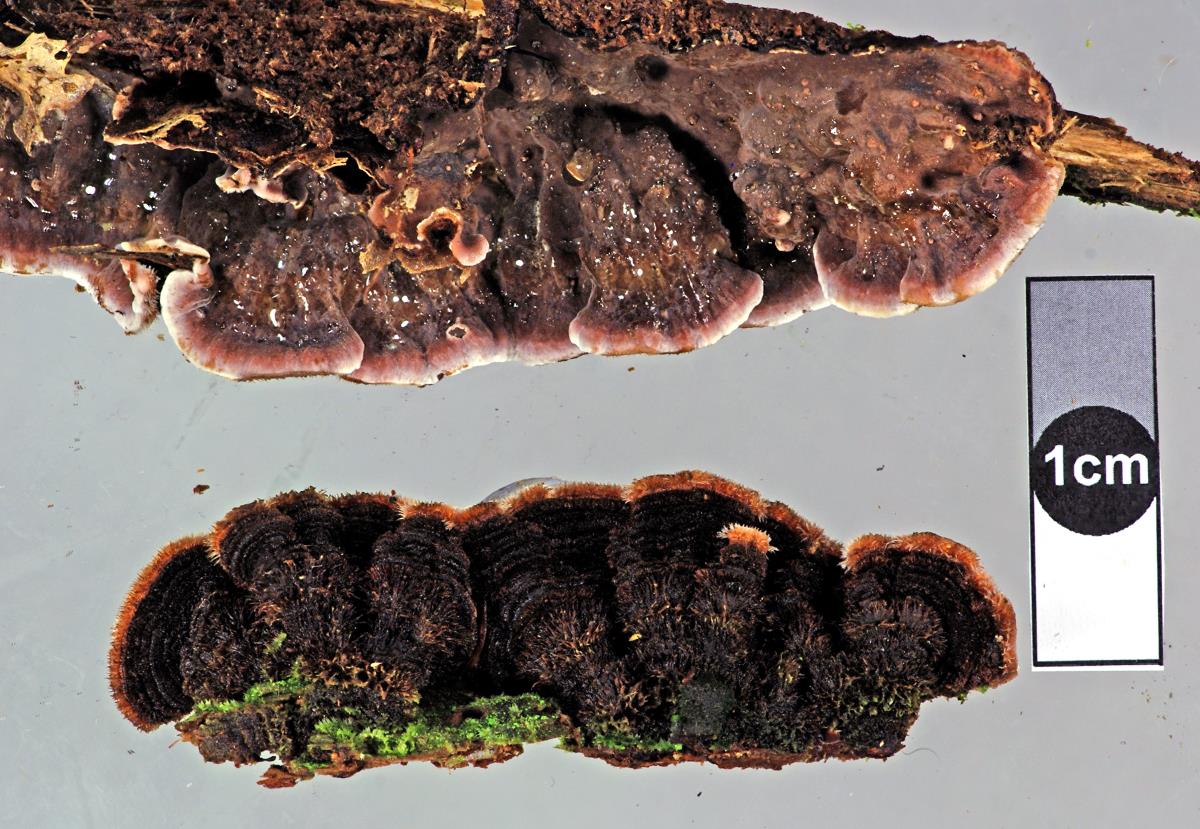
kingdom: Fungi
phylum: Basidiomycota
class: Agaricomycetes
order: Russulales
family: Stereaceae
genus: Xylobolus
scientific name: Xylobolus illudens
